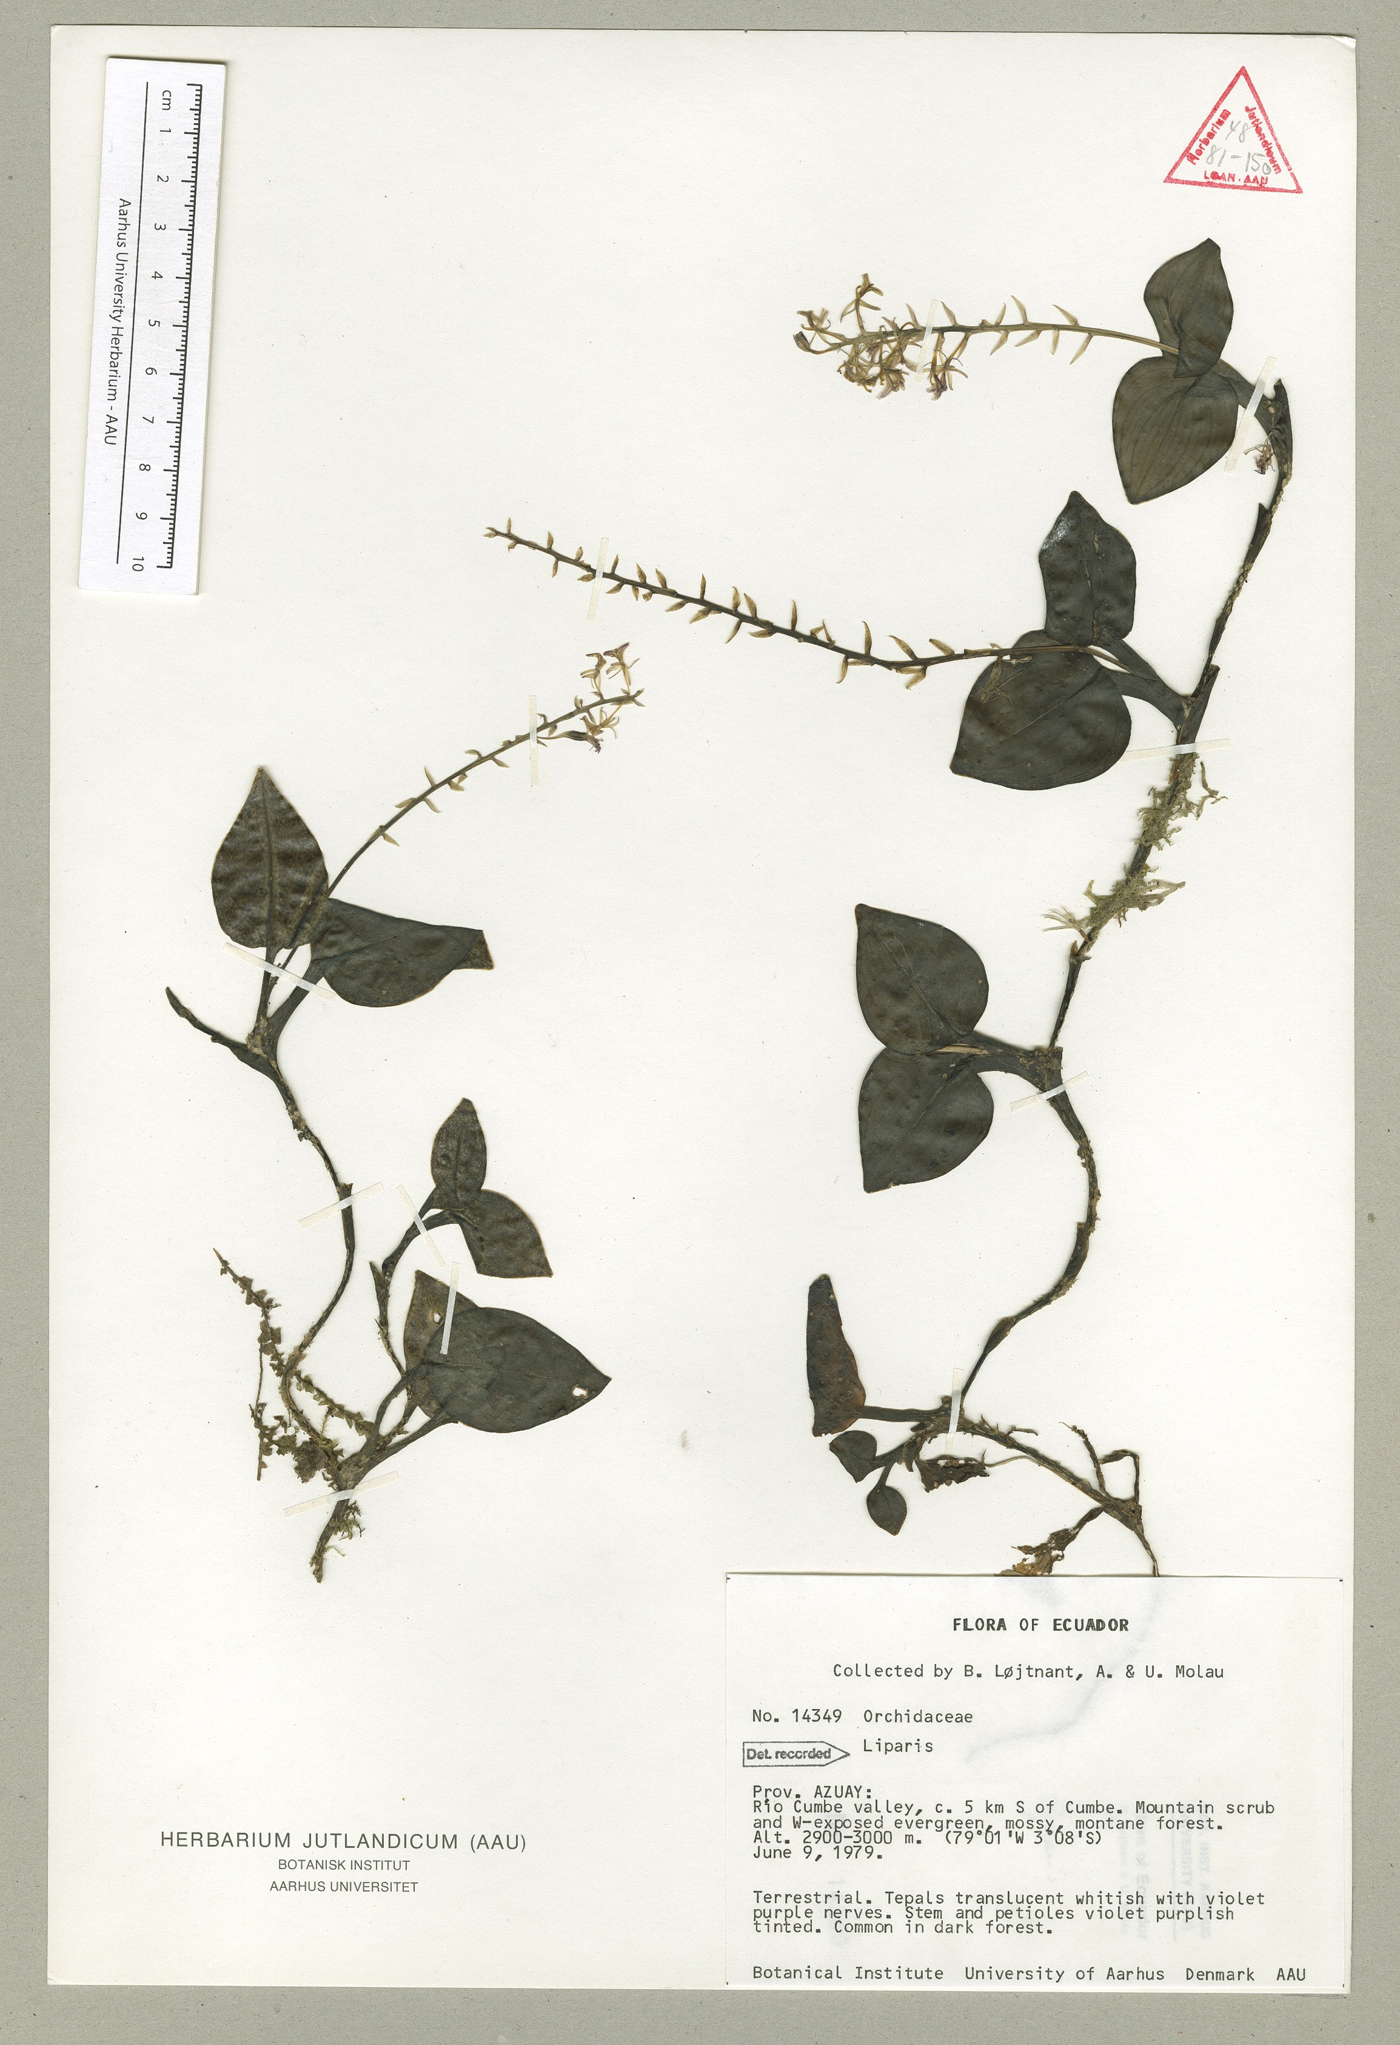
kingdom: Plantae
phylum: Tracheophyta
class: Liliopsida
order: Asparagales
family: Orchidaceae
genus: Liparis
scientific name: Liparis elegantula
